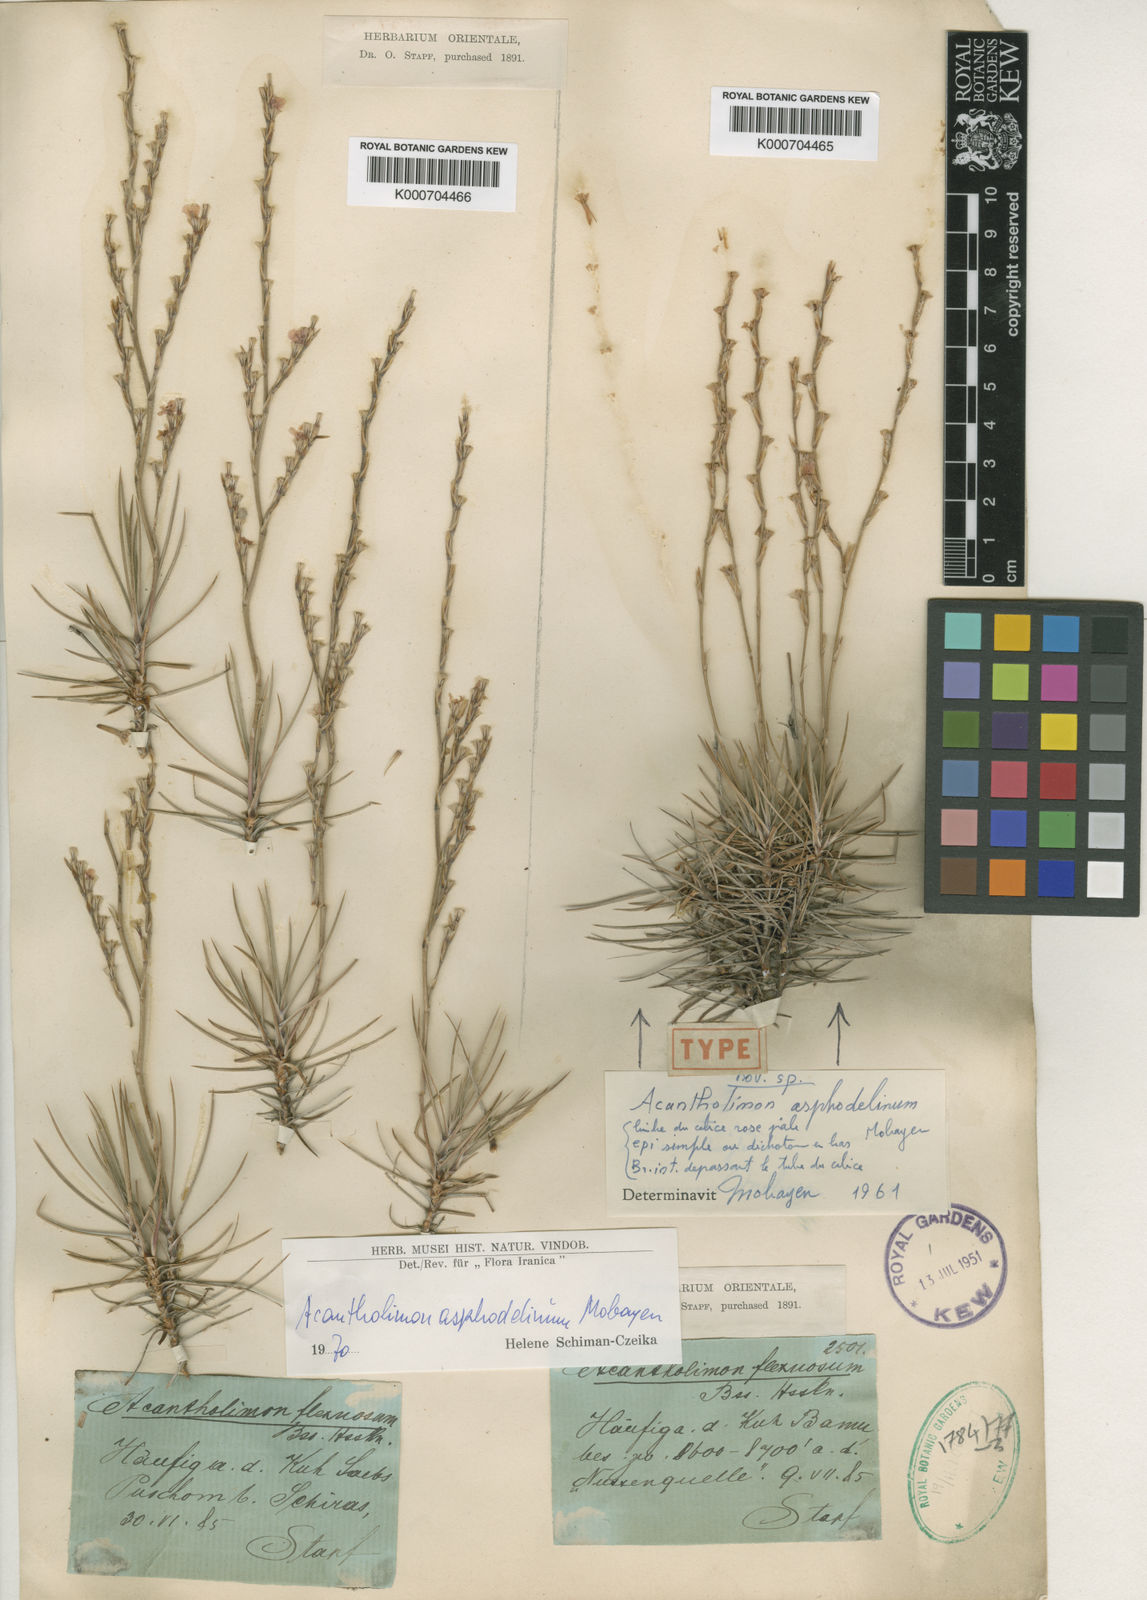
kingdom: Plantae
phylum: Tracheophyta
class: Magnoliopsida
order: Caryophyllales
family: Plumbaginaceae
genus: Acantholimon
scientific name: Acantholimon asphodelinum
